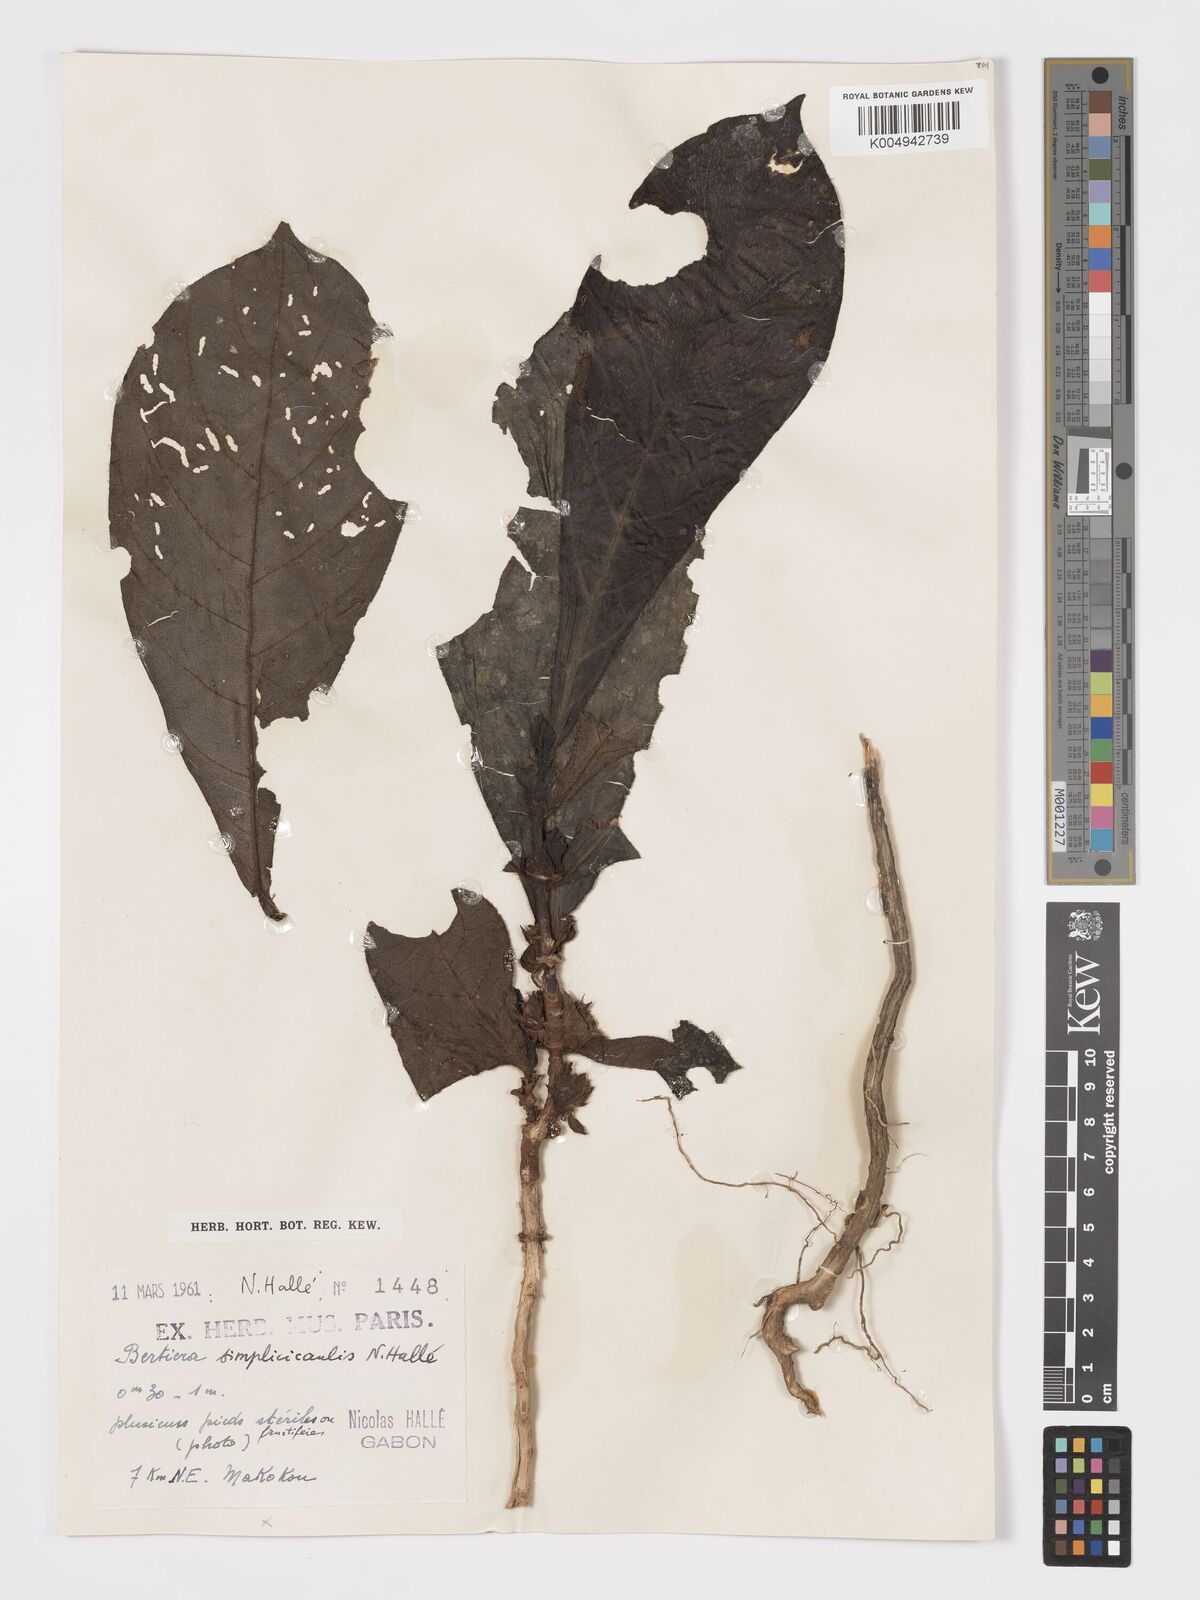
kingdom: Plantae
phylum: Tracheophyta
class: Magnoliopsida
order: Gentianales
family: Rubiaceae
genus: Bertiera
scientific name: Bertiera bicarpellata
